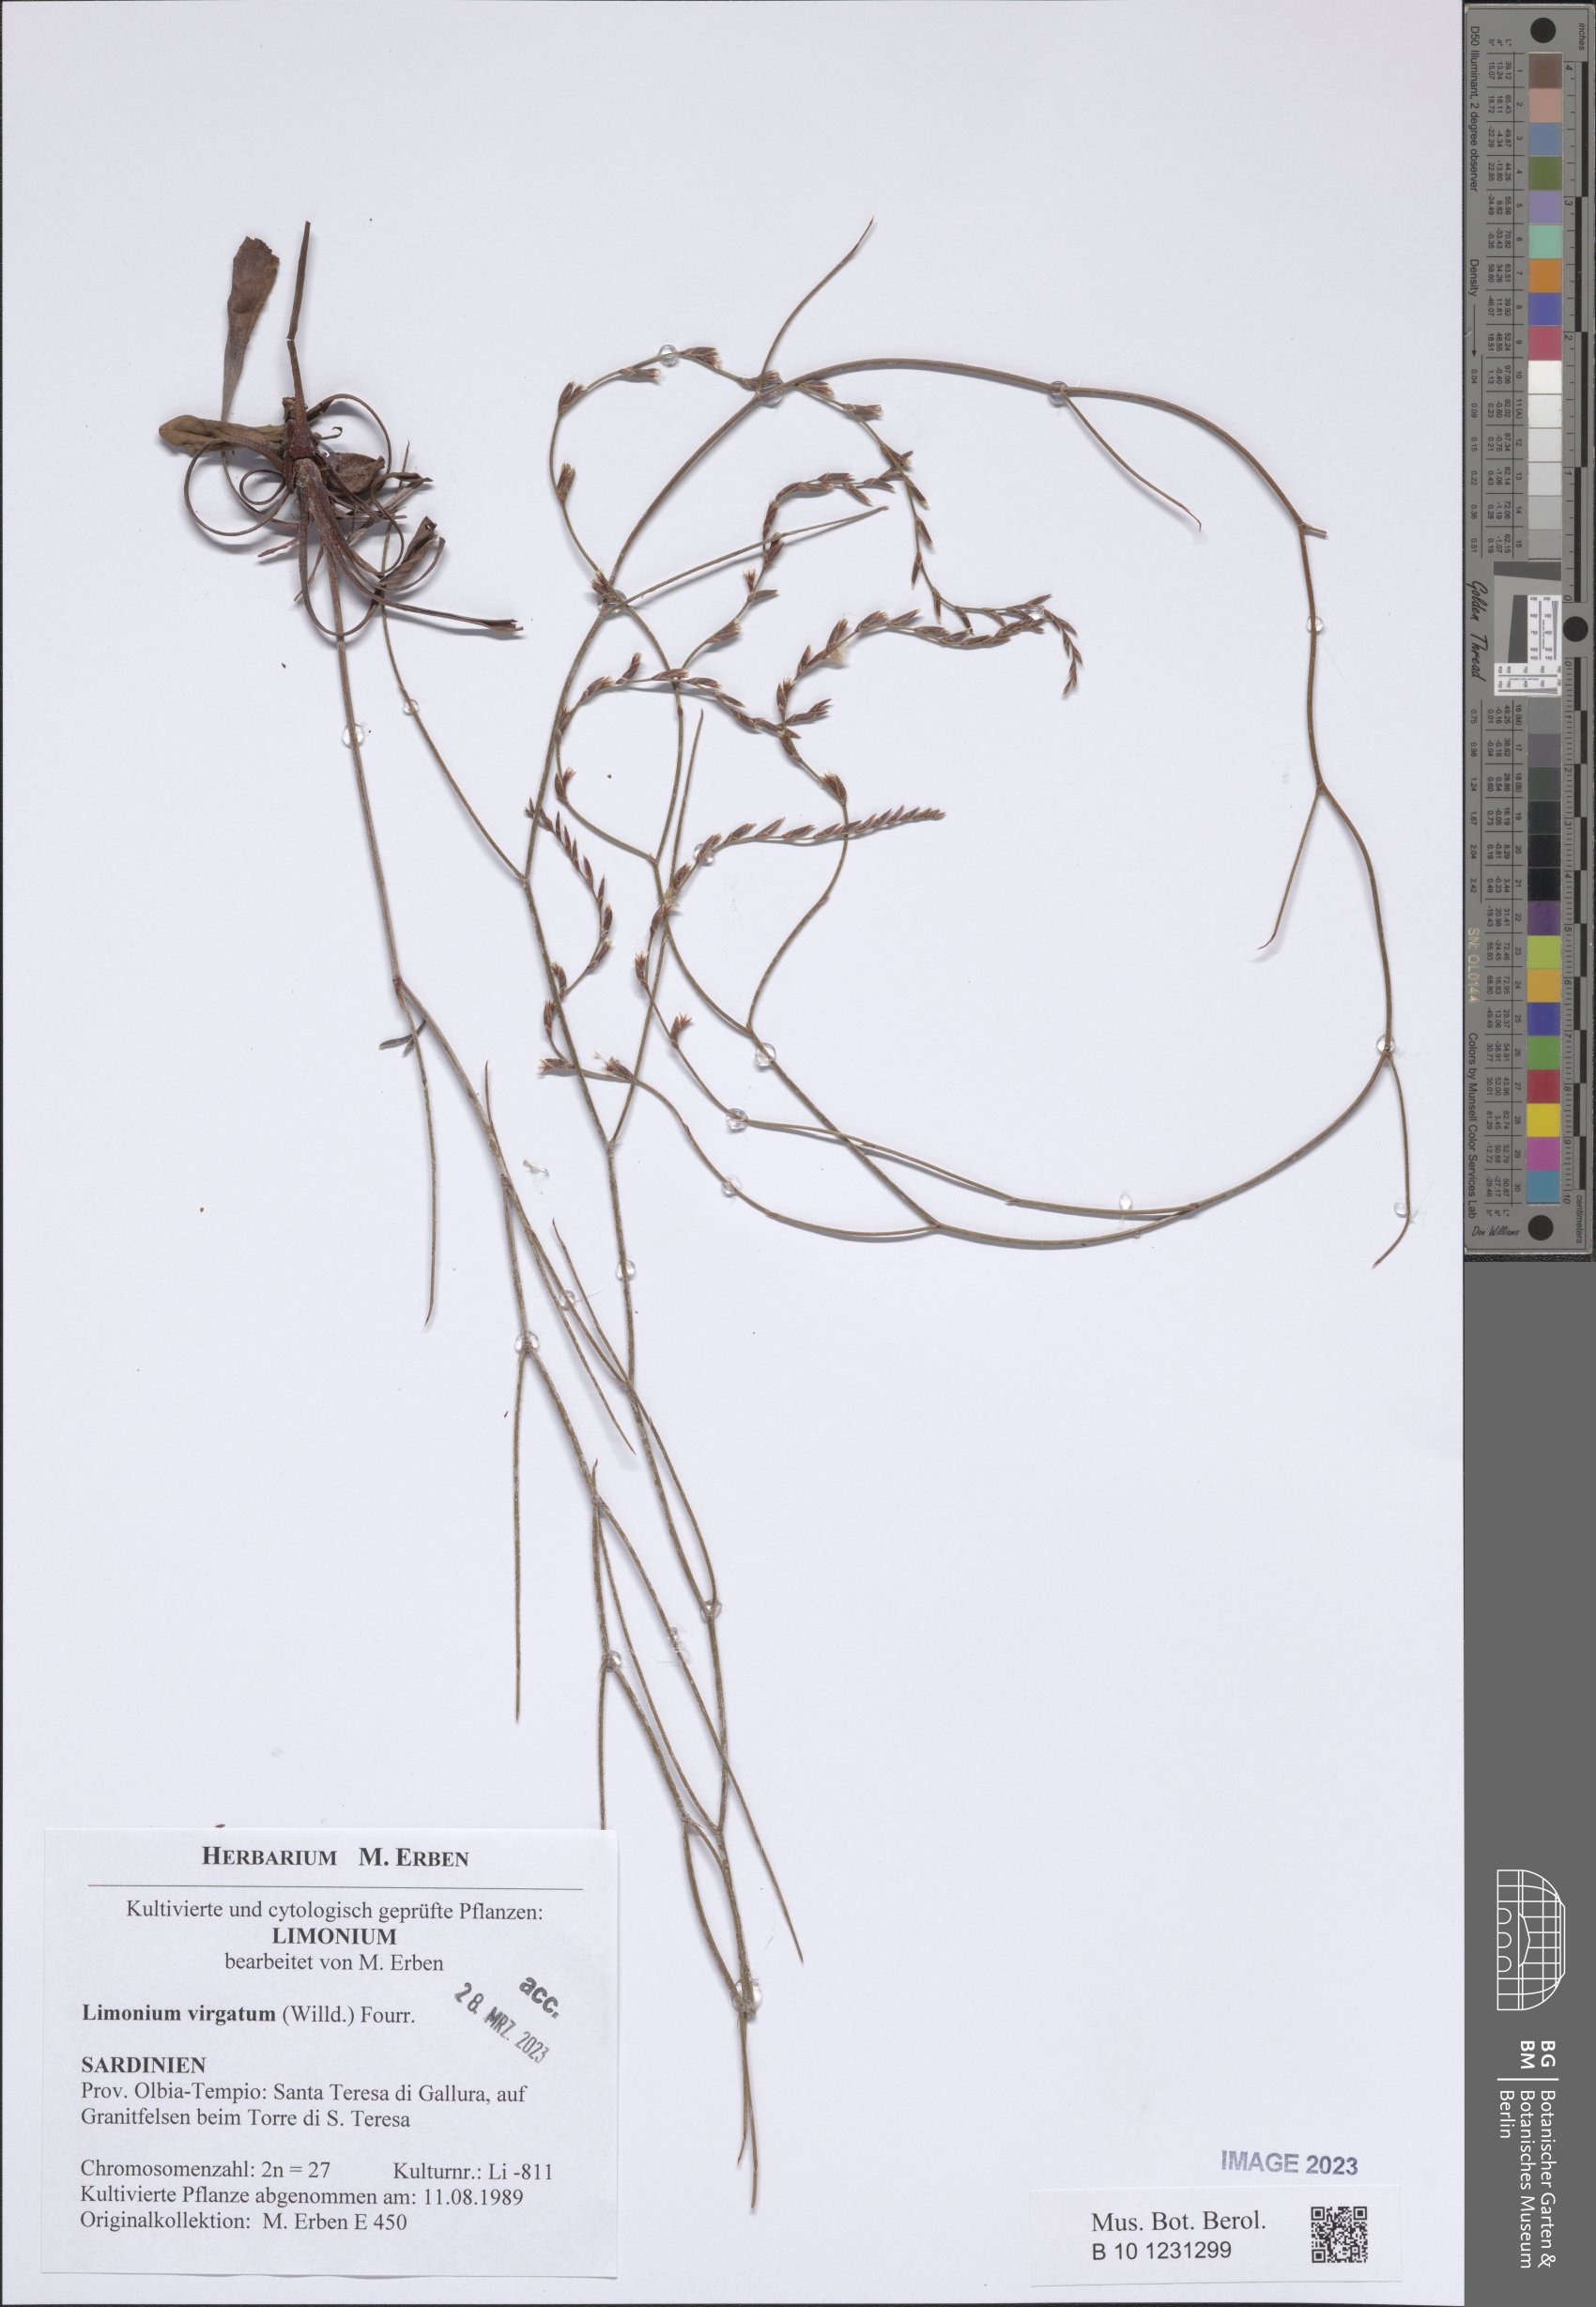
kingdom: Plantae
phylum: Tracheophyta
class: Magnoliopsida
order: Caryophyllales
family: Plumbaginaceae
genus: Limonium
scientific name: Limonium virgatum
